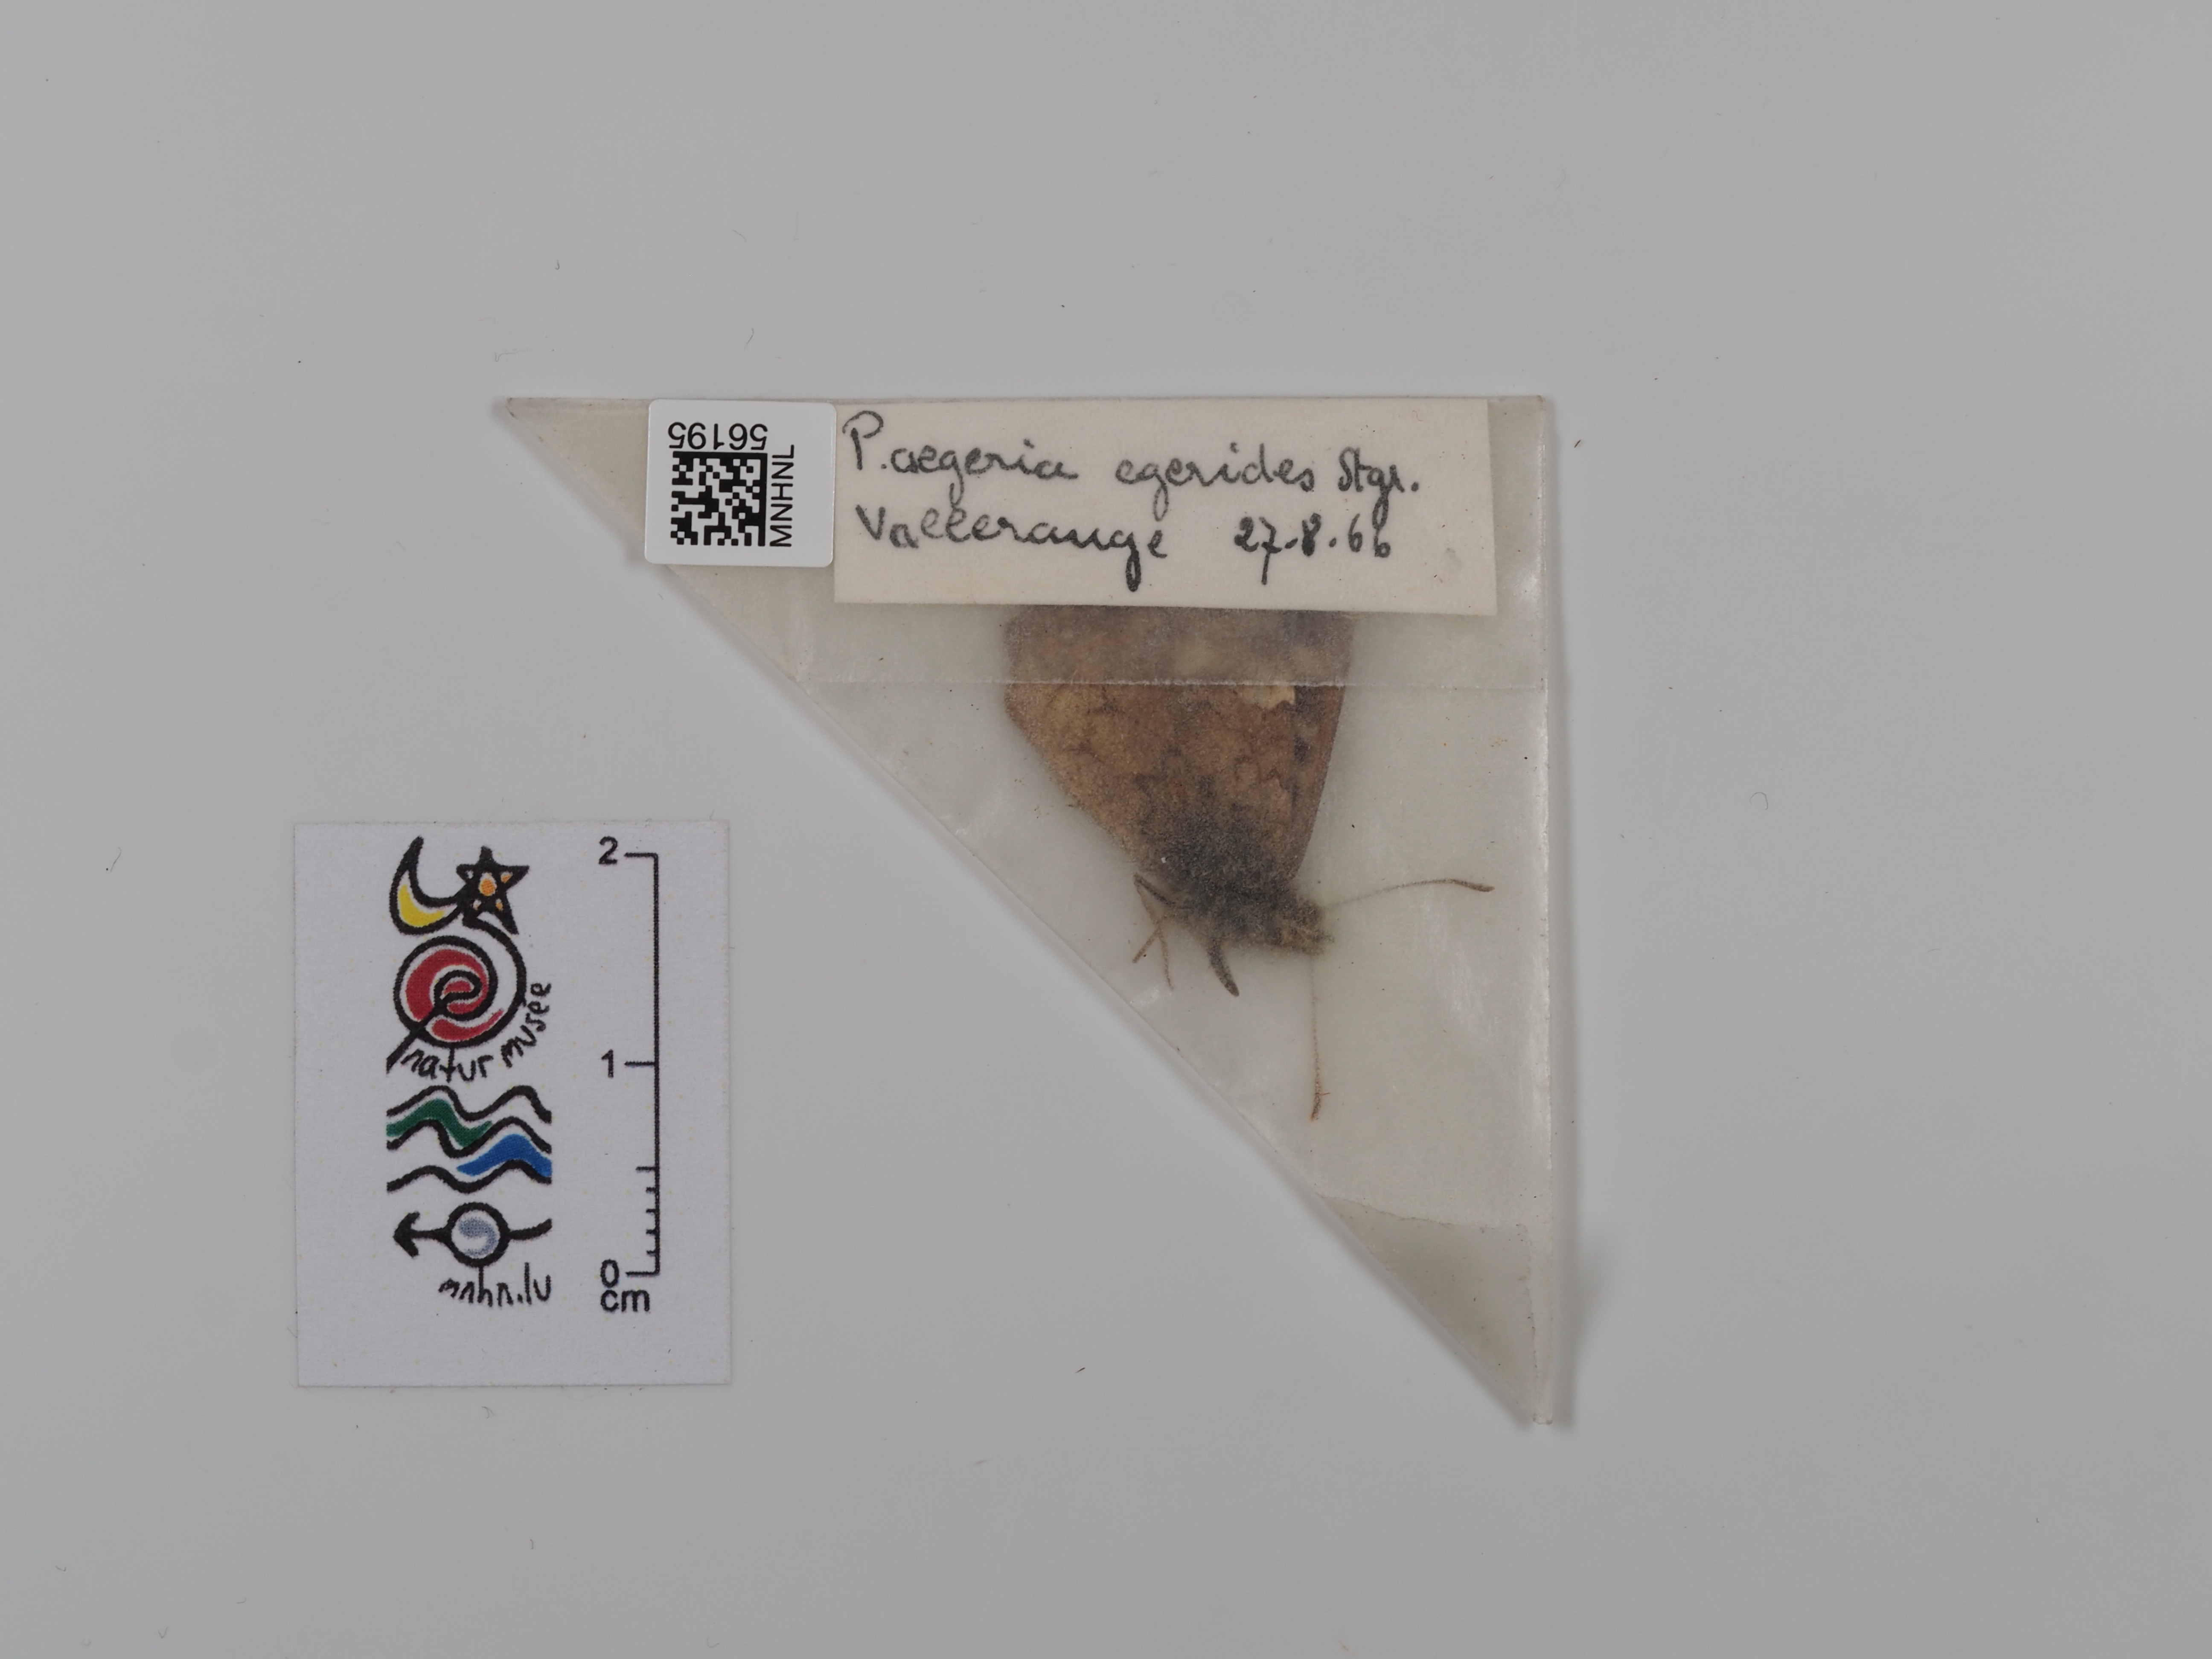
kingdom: Animalia
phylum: Arthropoda
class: Insecta
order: Lepidoptera
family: Nymphalidae
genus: Pararge
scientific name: Pararge aegeria
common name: Speckled wood
